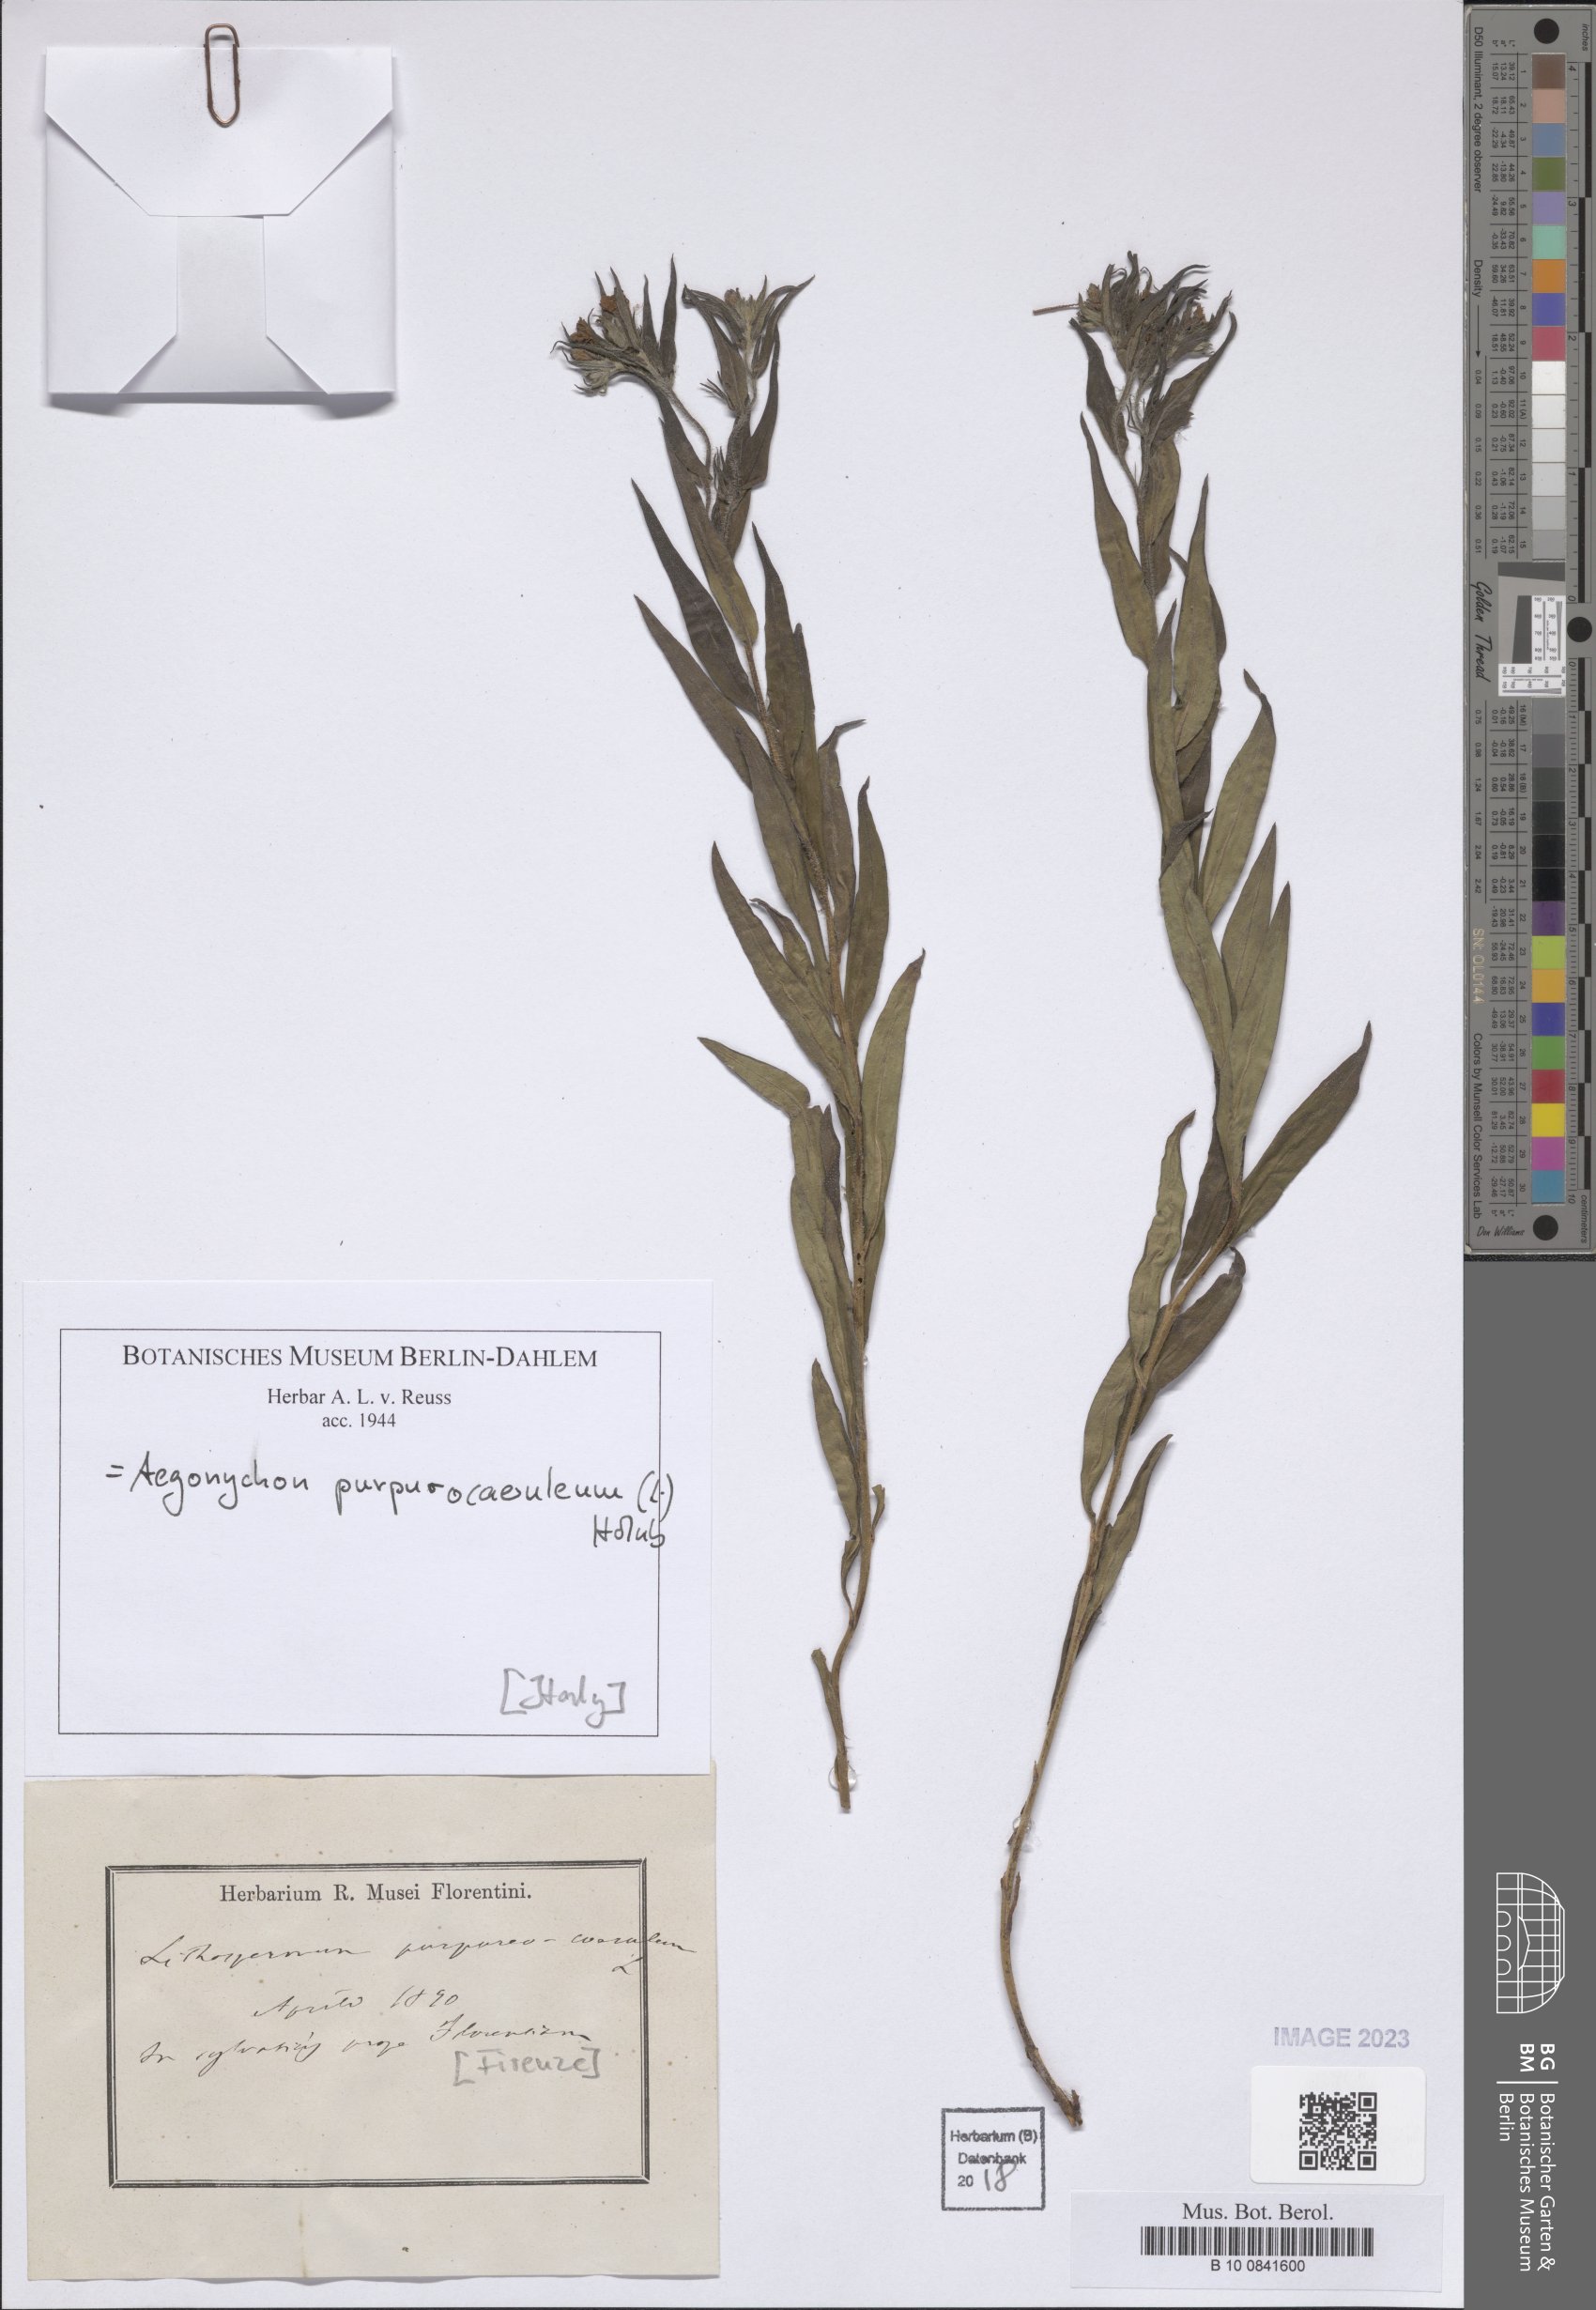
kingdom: Plantae
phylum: Tracheophyta
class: Magnoliopsida
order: Boraginales
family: Boraginaceae
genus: Aegonychon
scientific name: Aegonychon purpurocaeruleum
